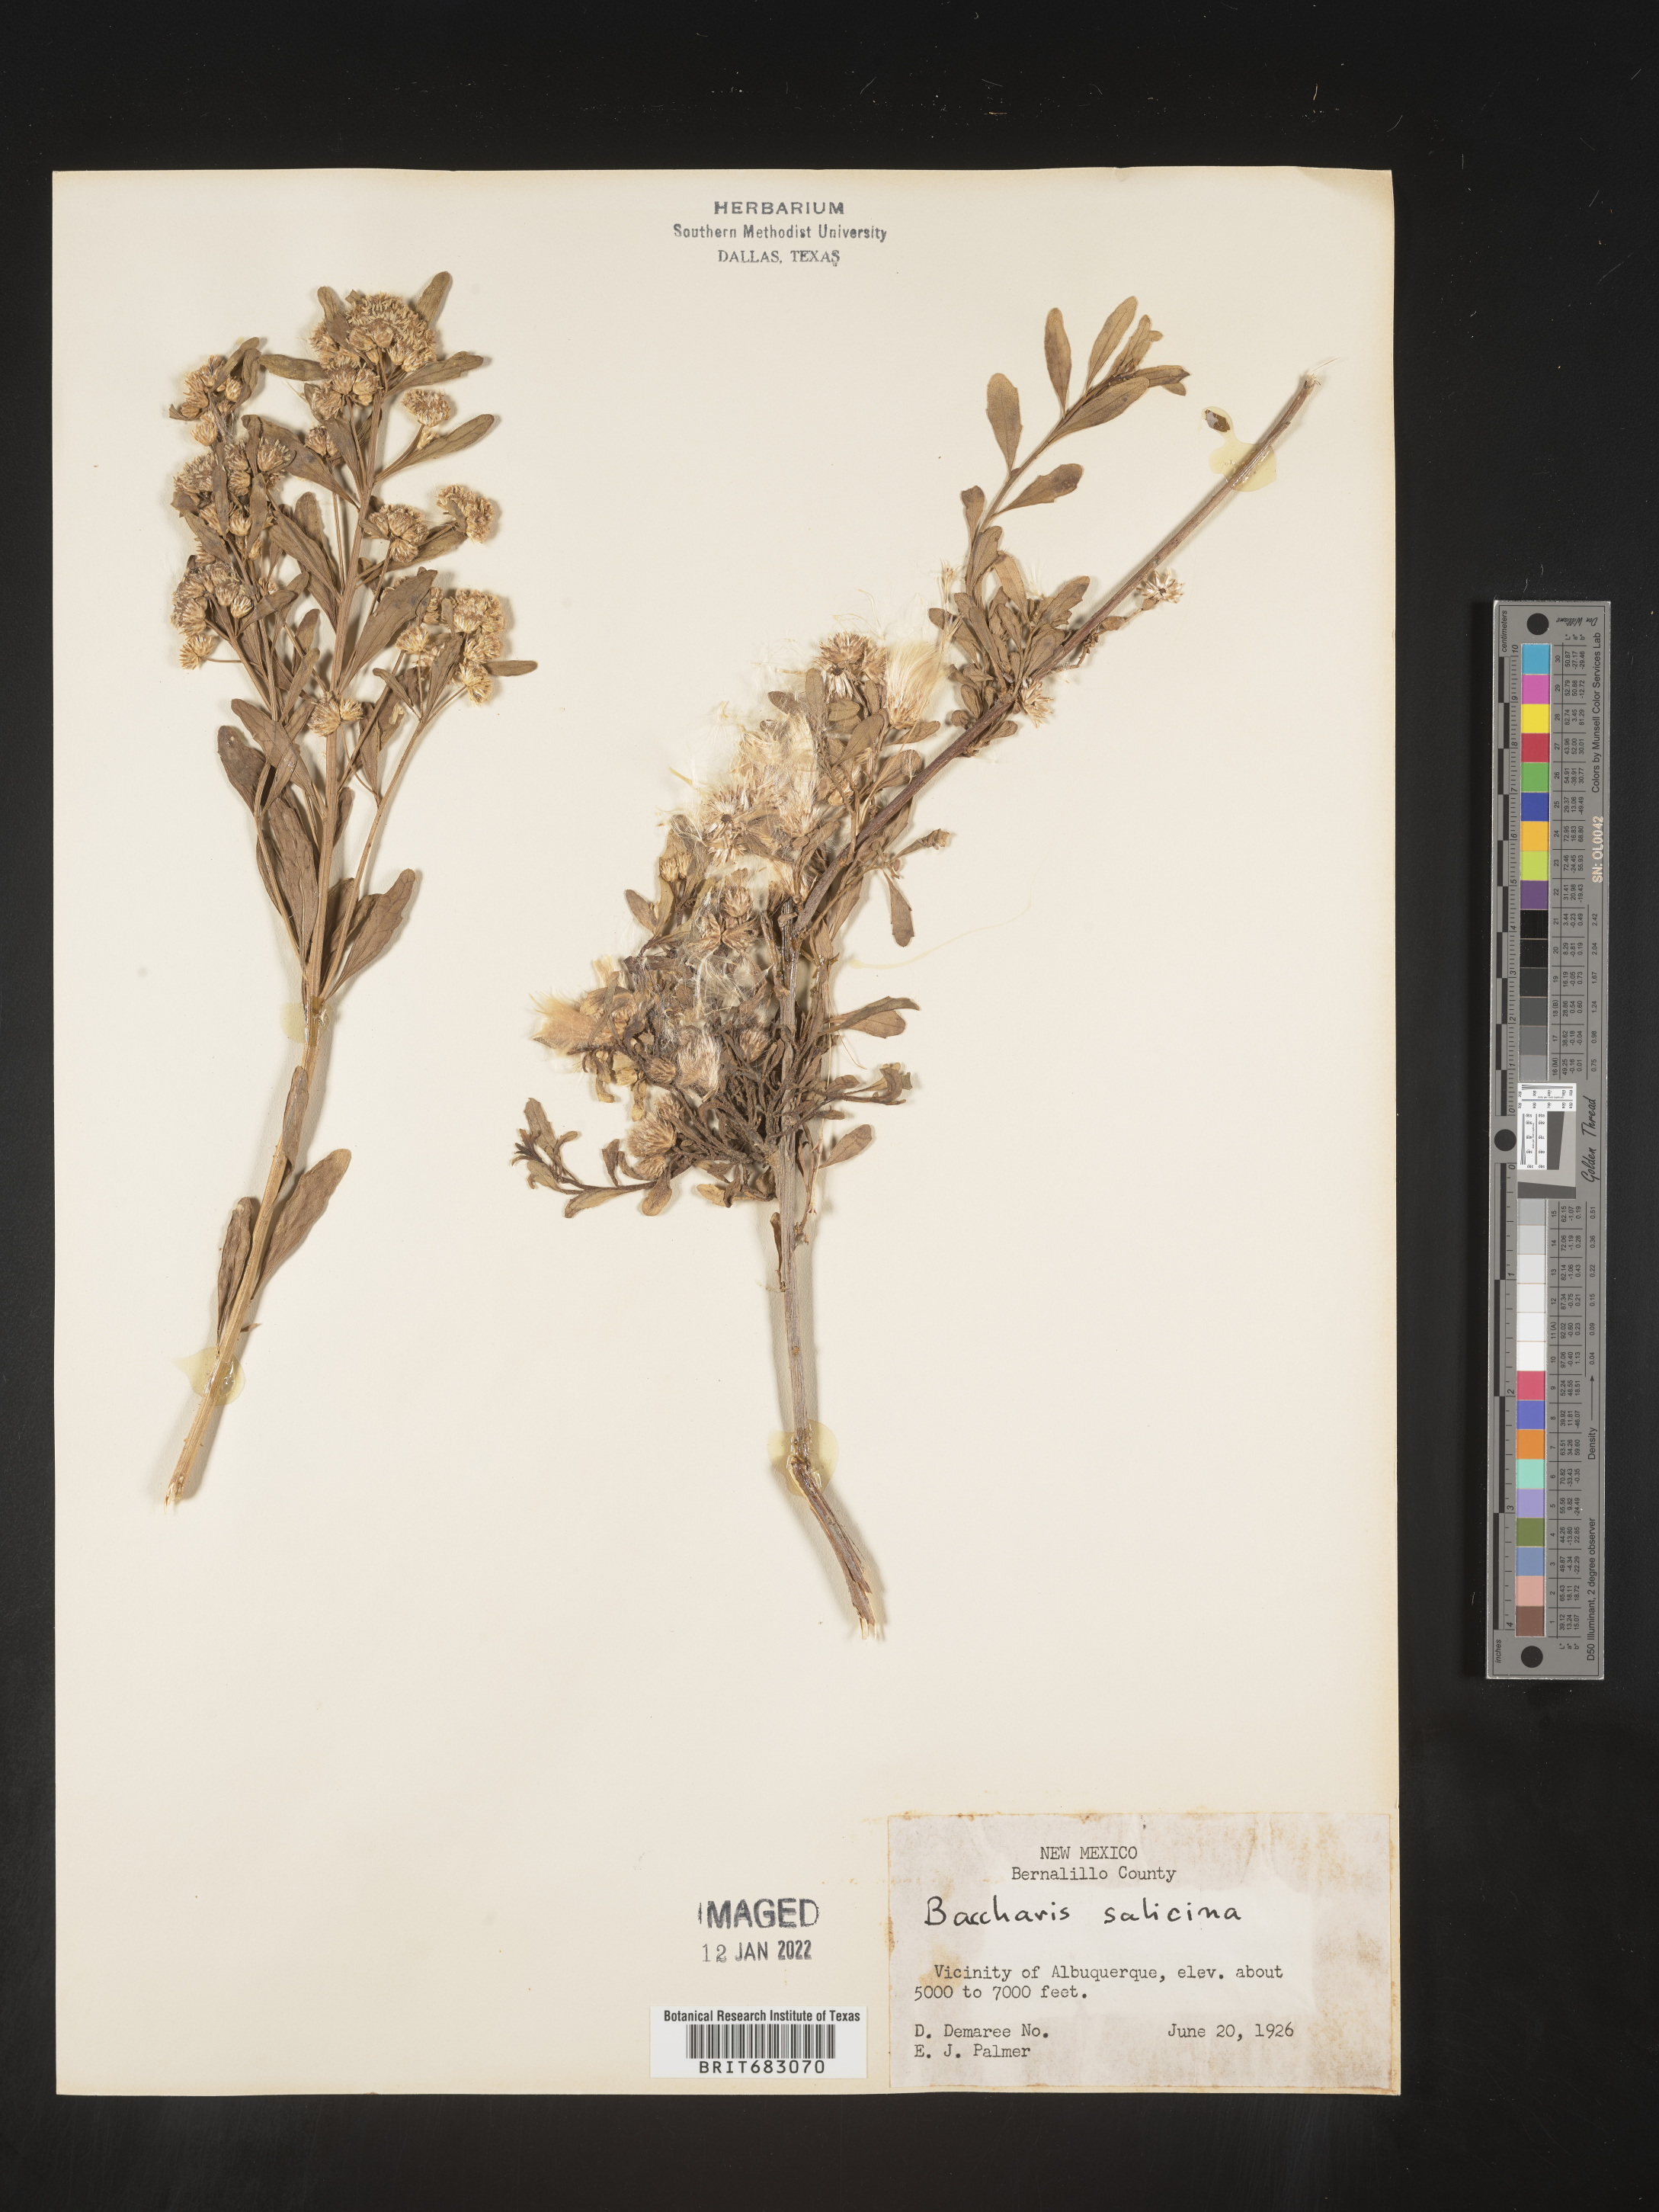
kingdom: Plantae
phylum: Tracheophyta
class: Magnoliopsida
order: Asterales
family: Asteraceae
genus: Baccharis
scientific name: Baccharis salicina
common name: Willow baccharis
